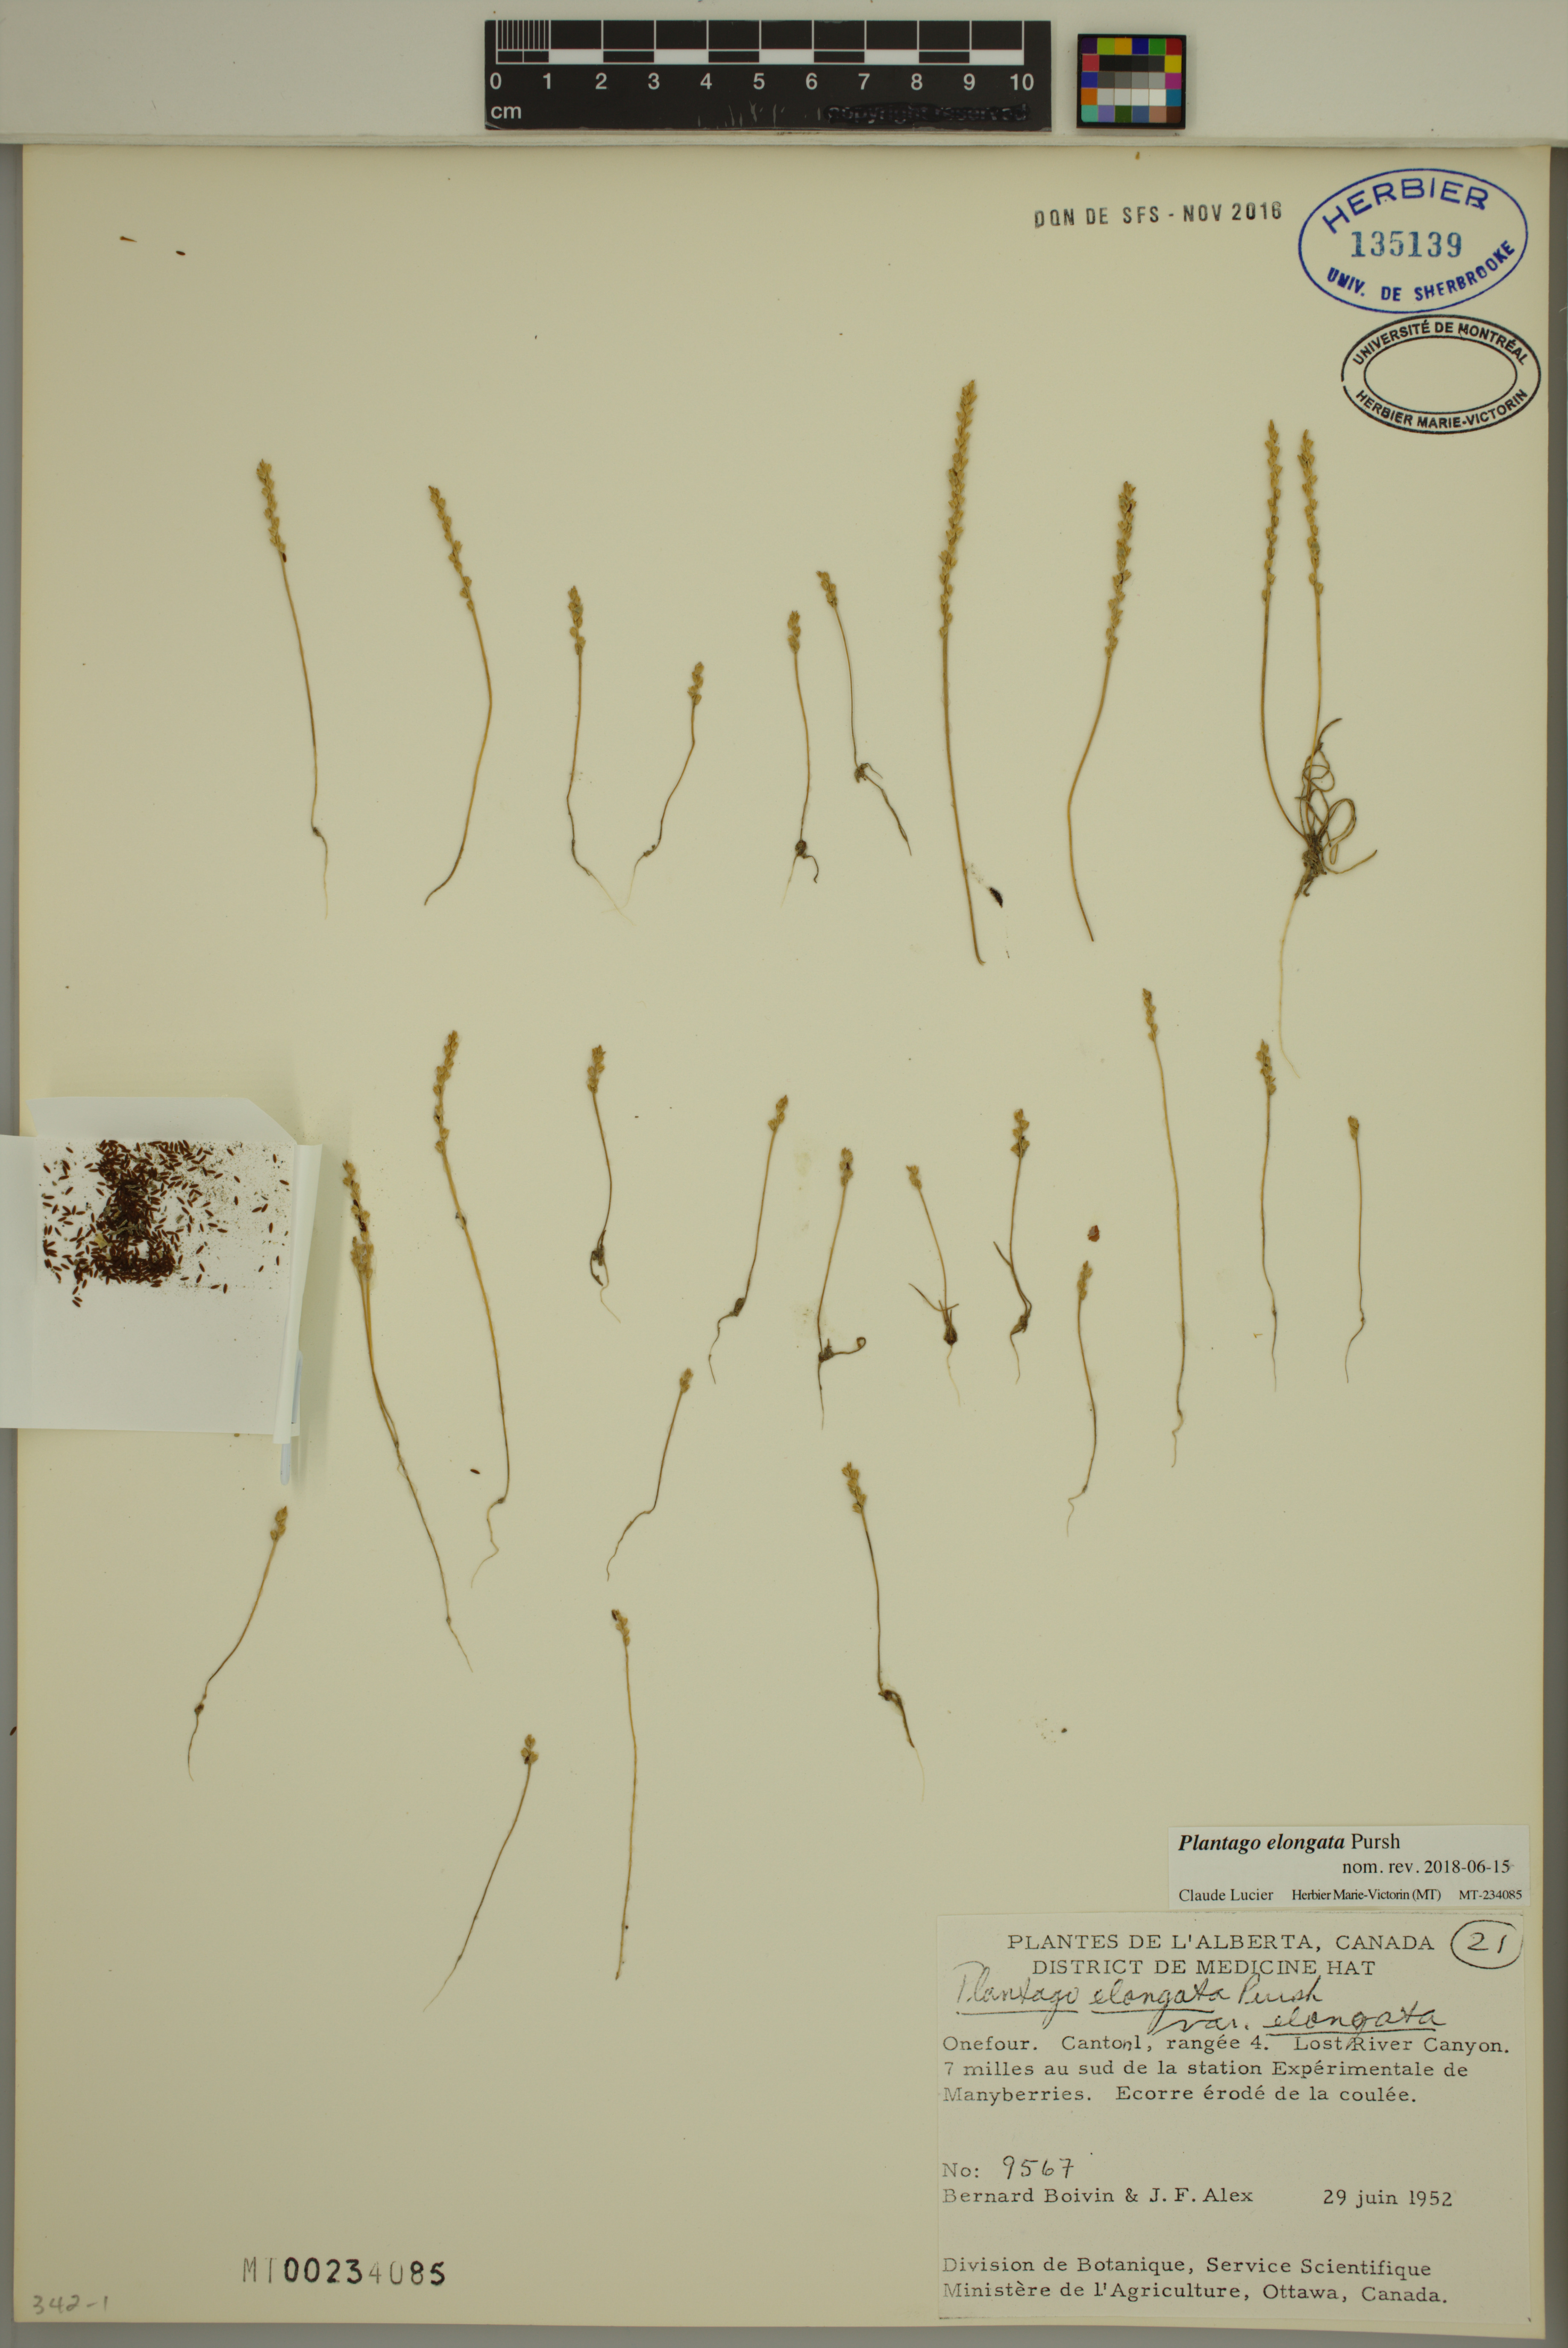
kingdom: Plantae
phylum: Tracheophyta
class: Magnoliopsida
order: Lamiales
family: Plantaginaceae
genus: Plantago
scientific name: Plantago elongata
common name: Linear-leaved plantain
